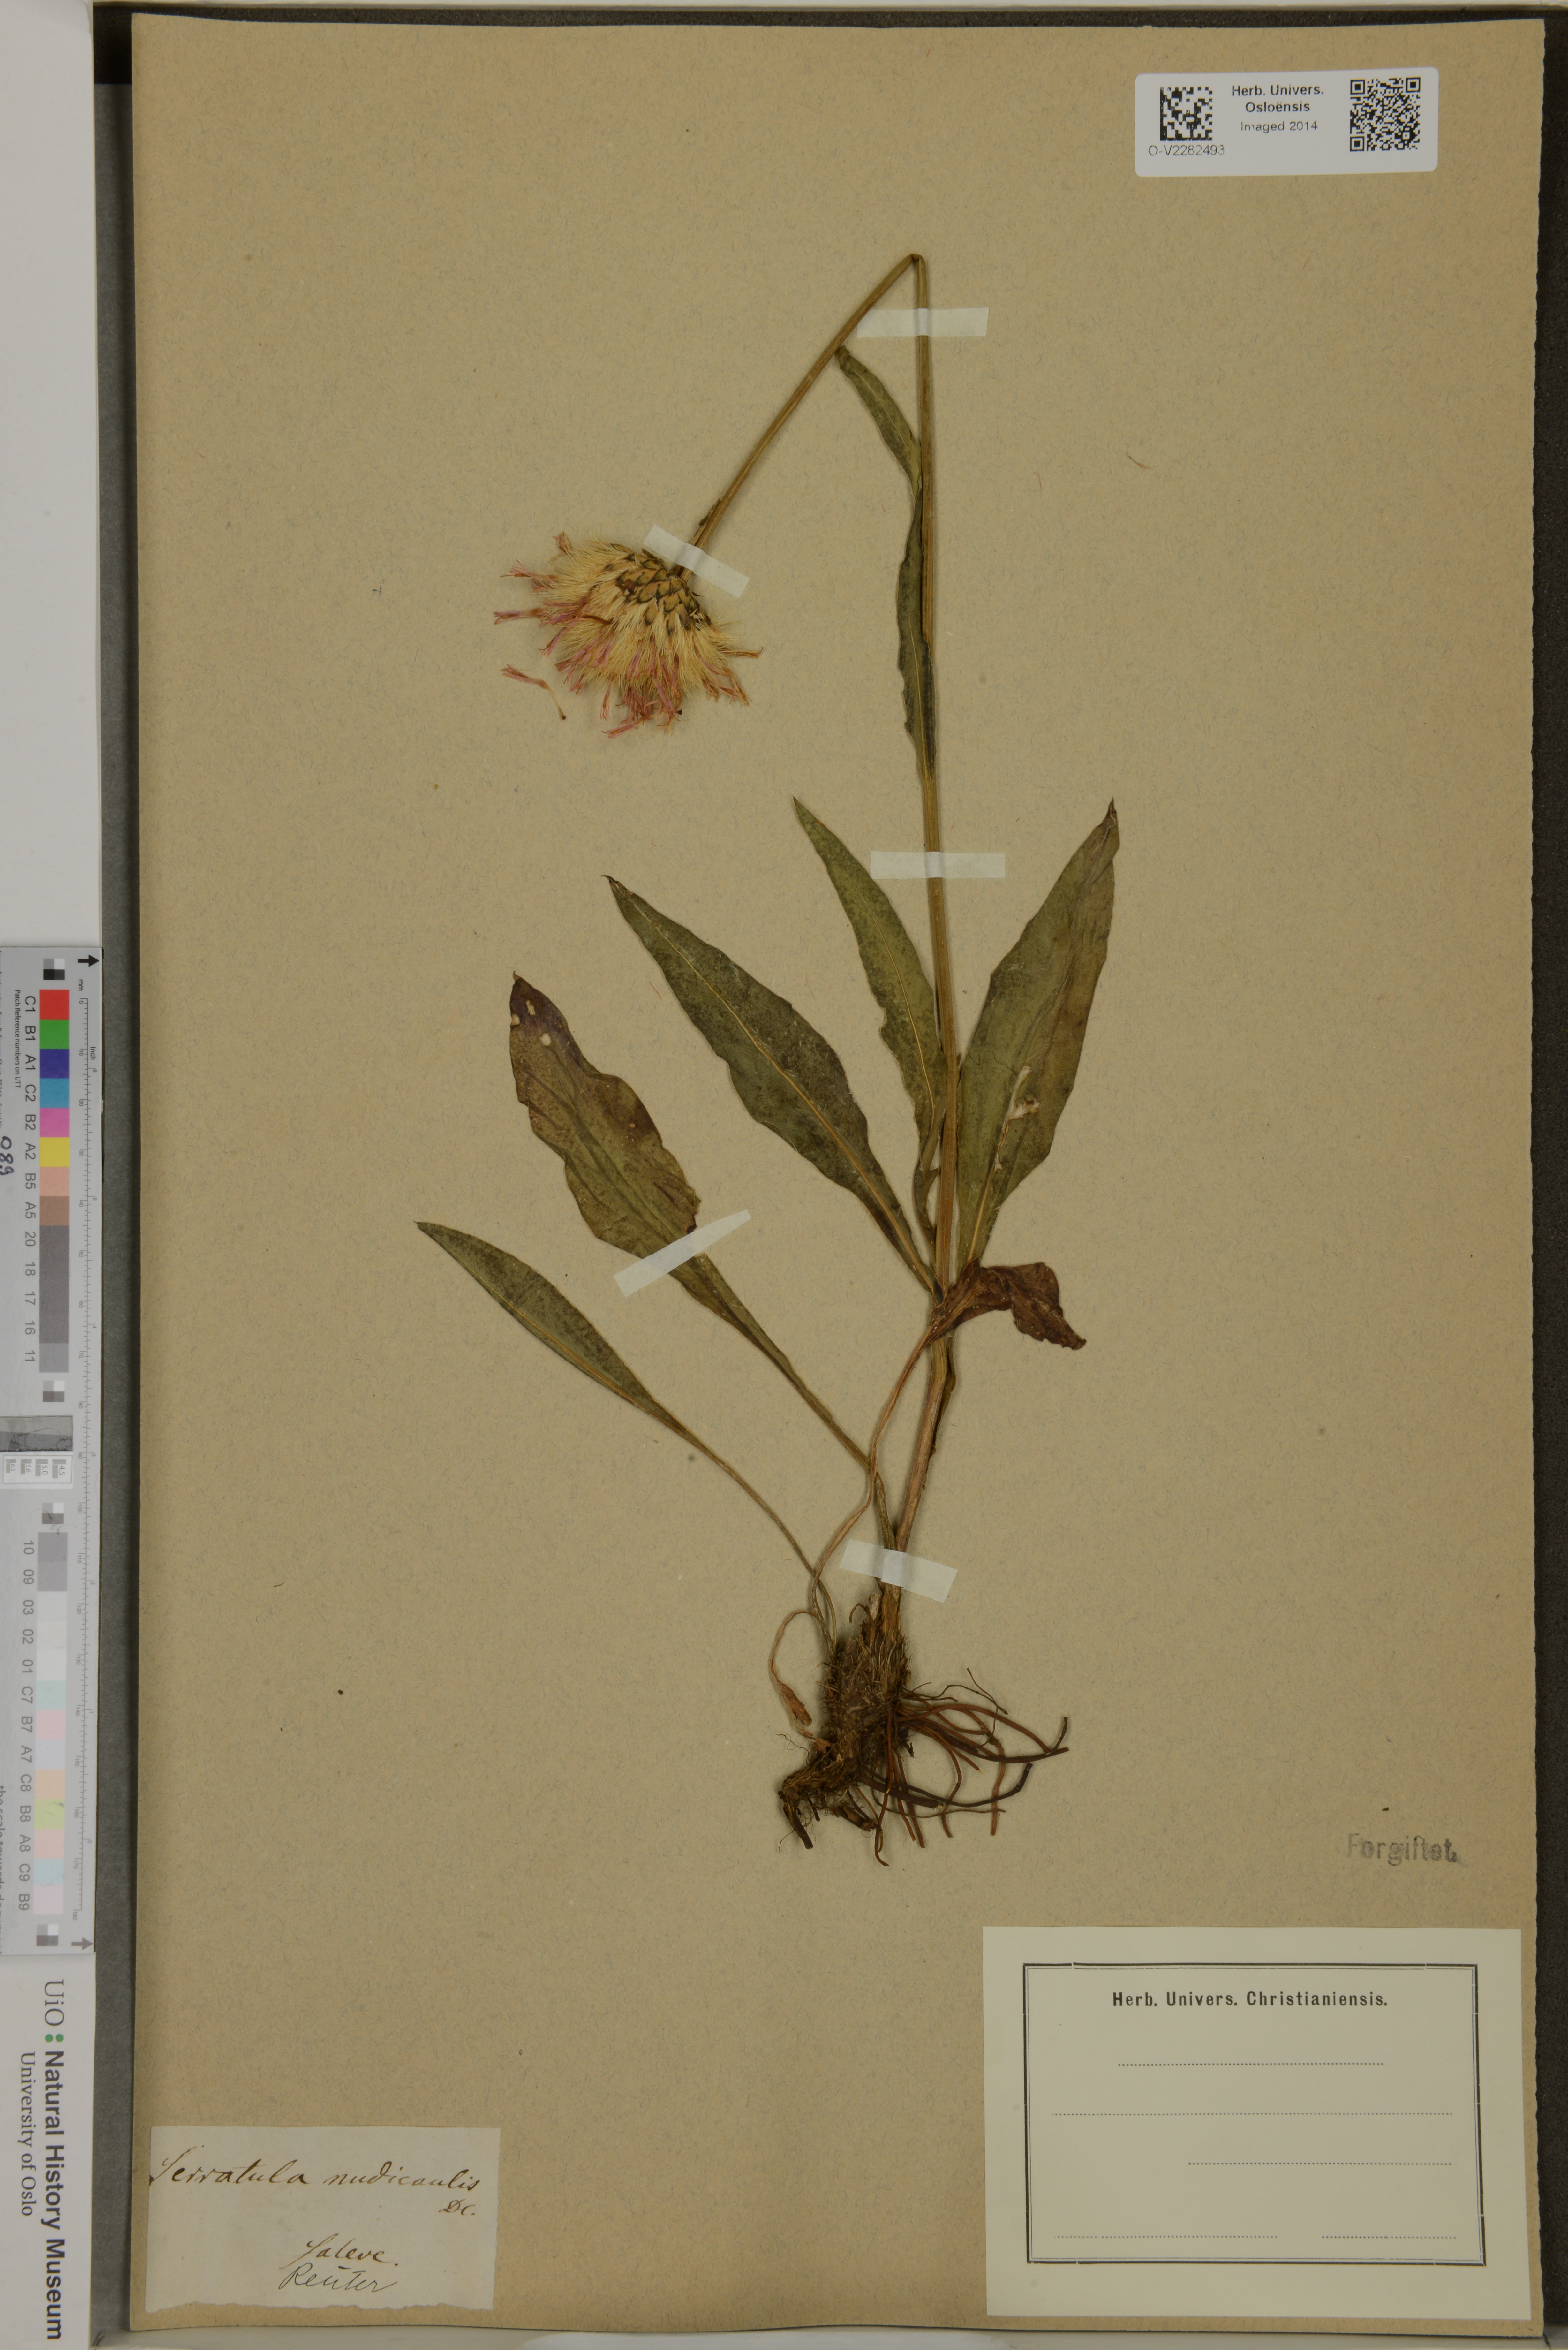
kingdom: Plantae
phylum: Tracheophyta
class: Magnoliopsida
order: Asterales
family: Asteraceae
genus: Klasea
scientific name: Klasea nudicaulis
